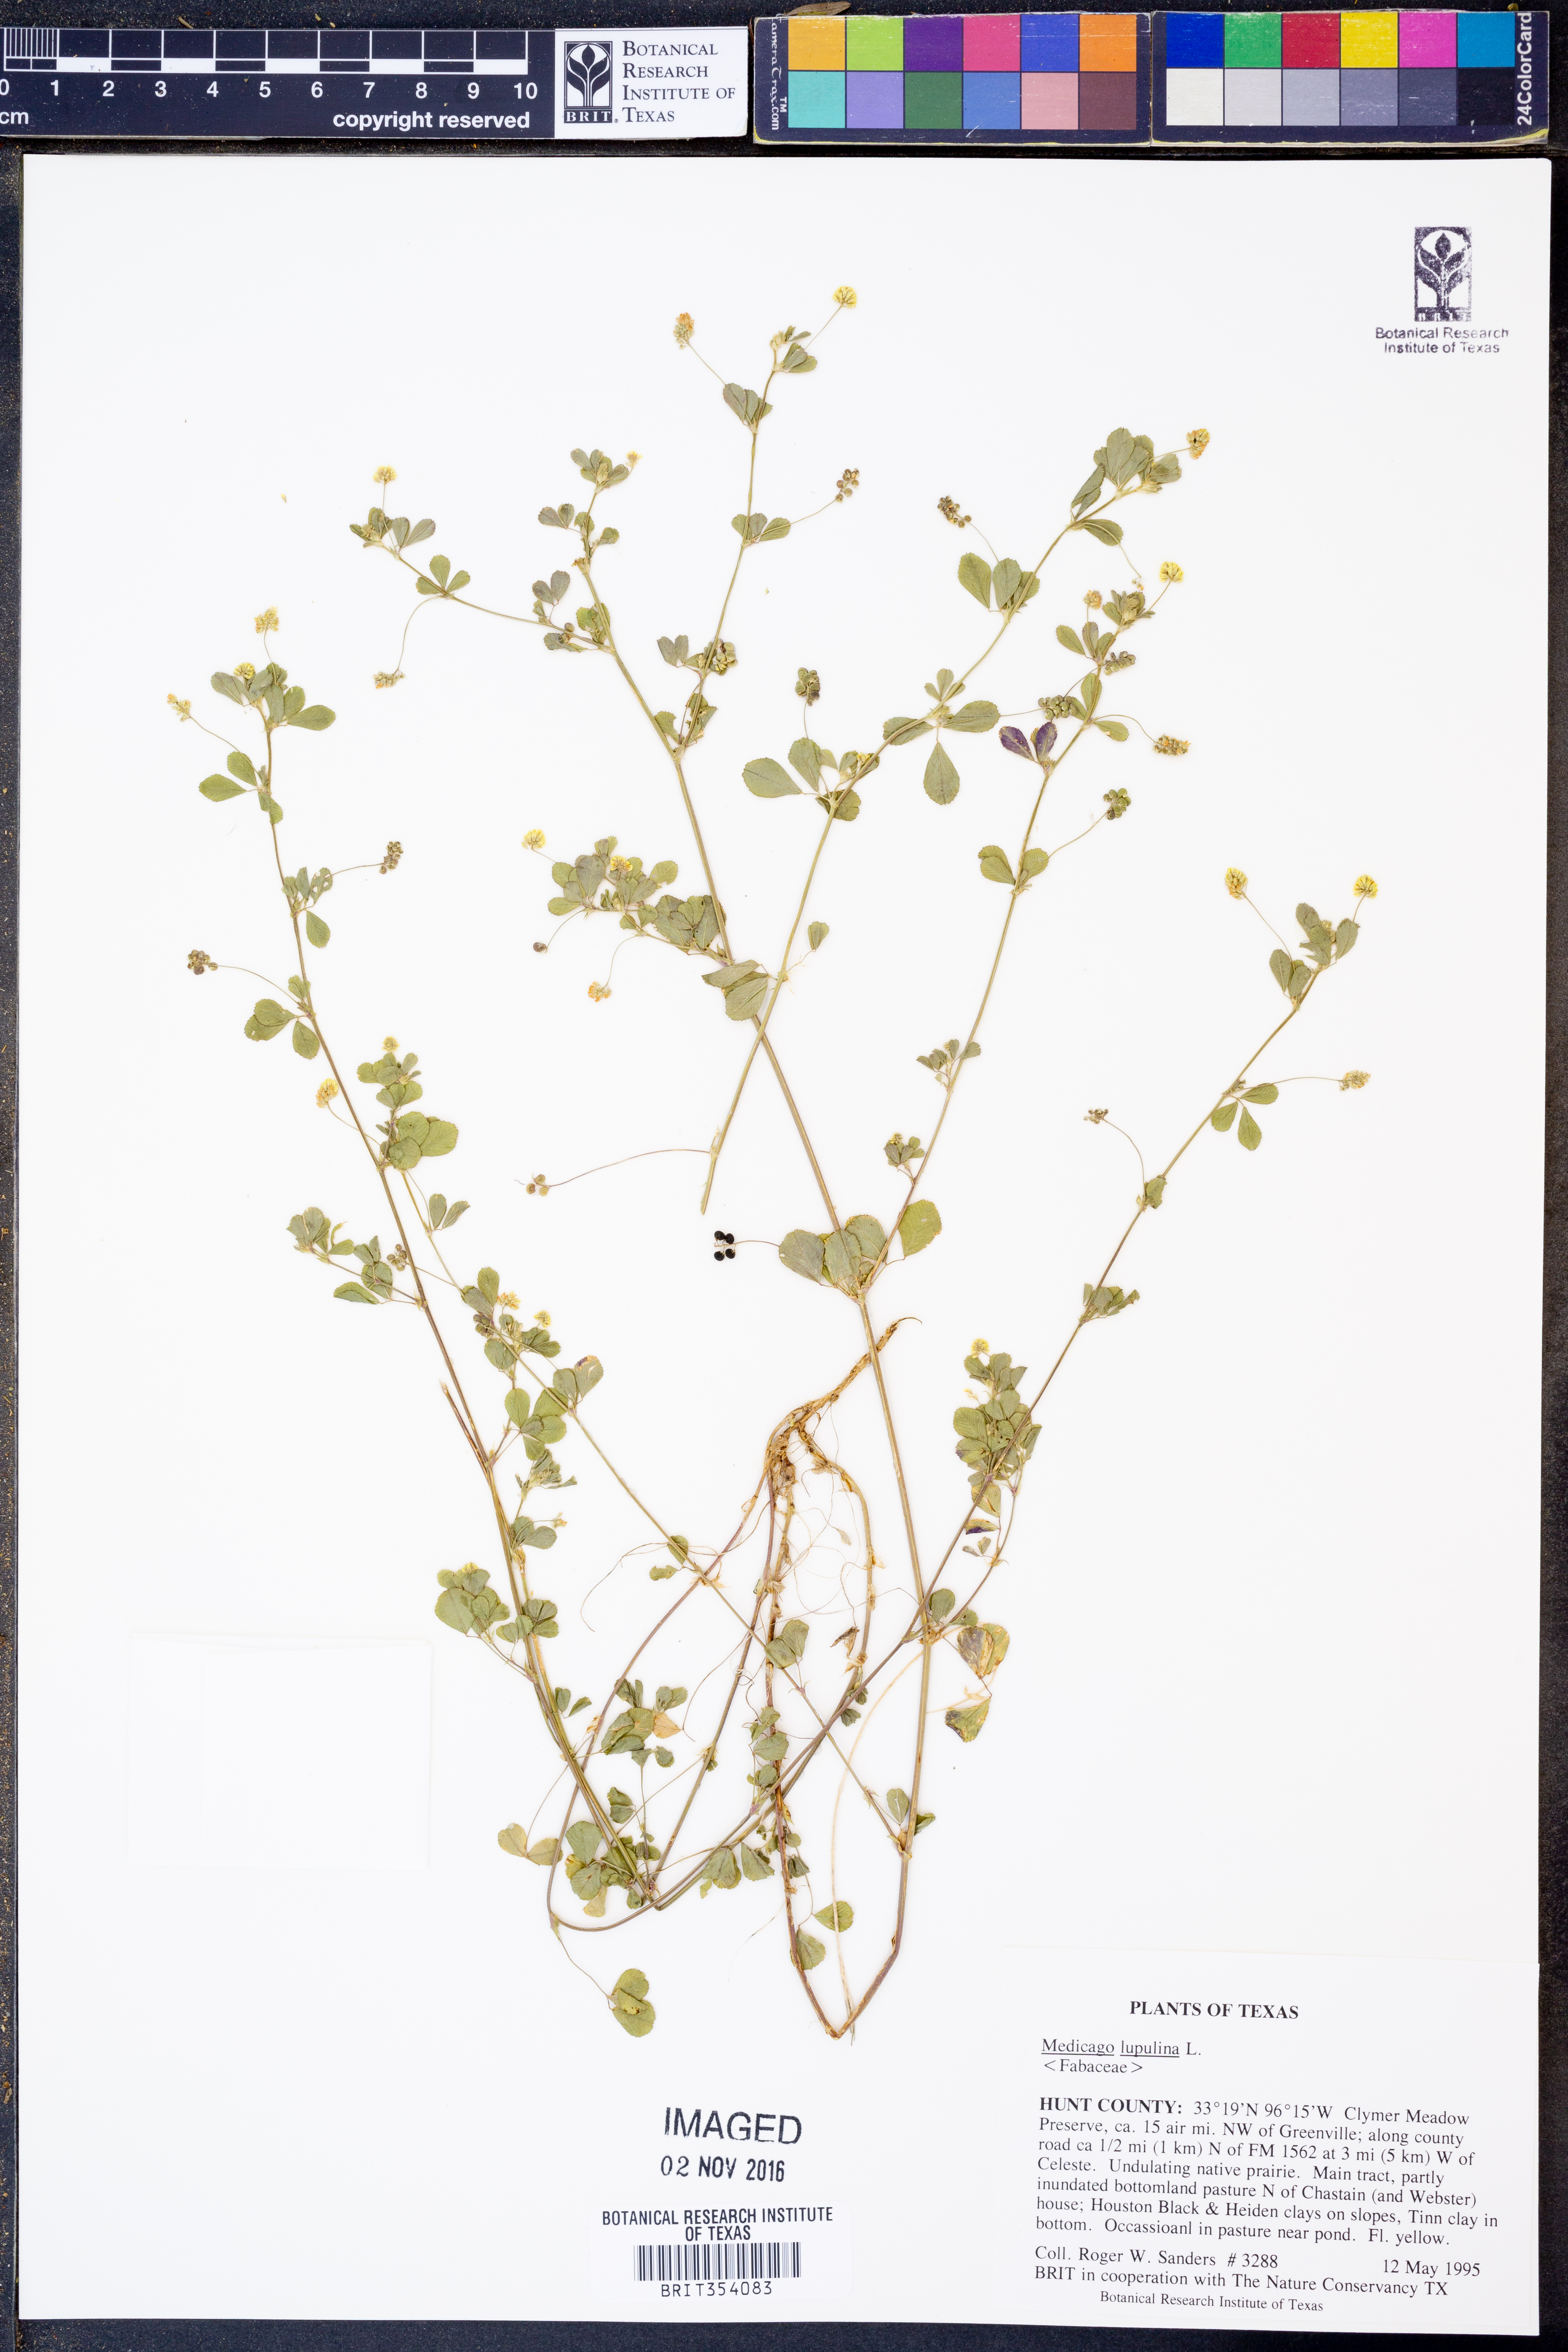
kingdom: Plantae
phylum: Tracheophyta
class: Magnoliopsida
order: Fabales
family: Fabaceae
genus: Medicago
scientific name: Medicago lupulina
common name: Black medick
